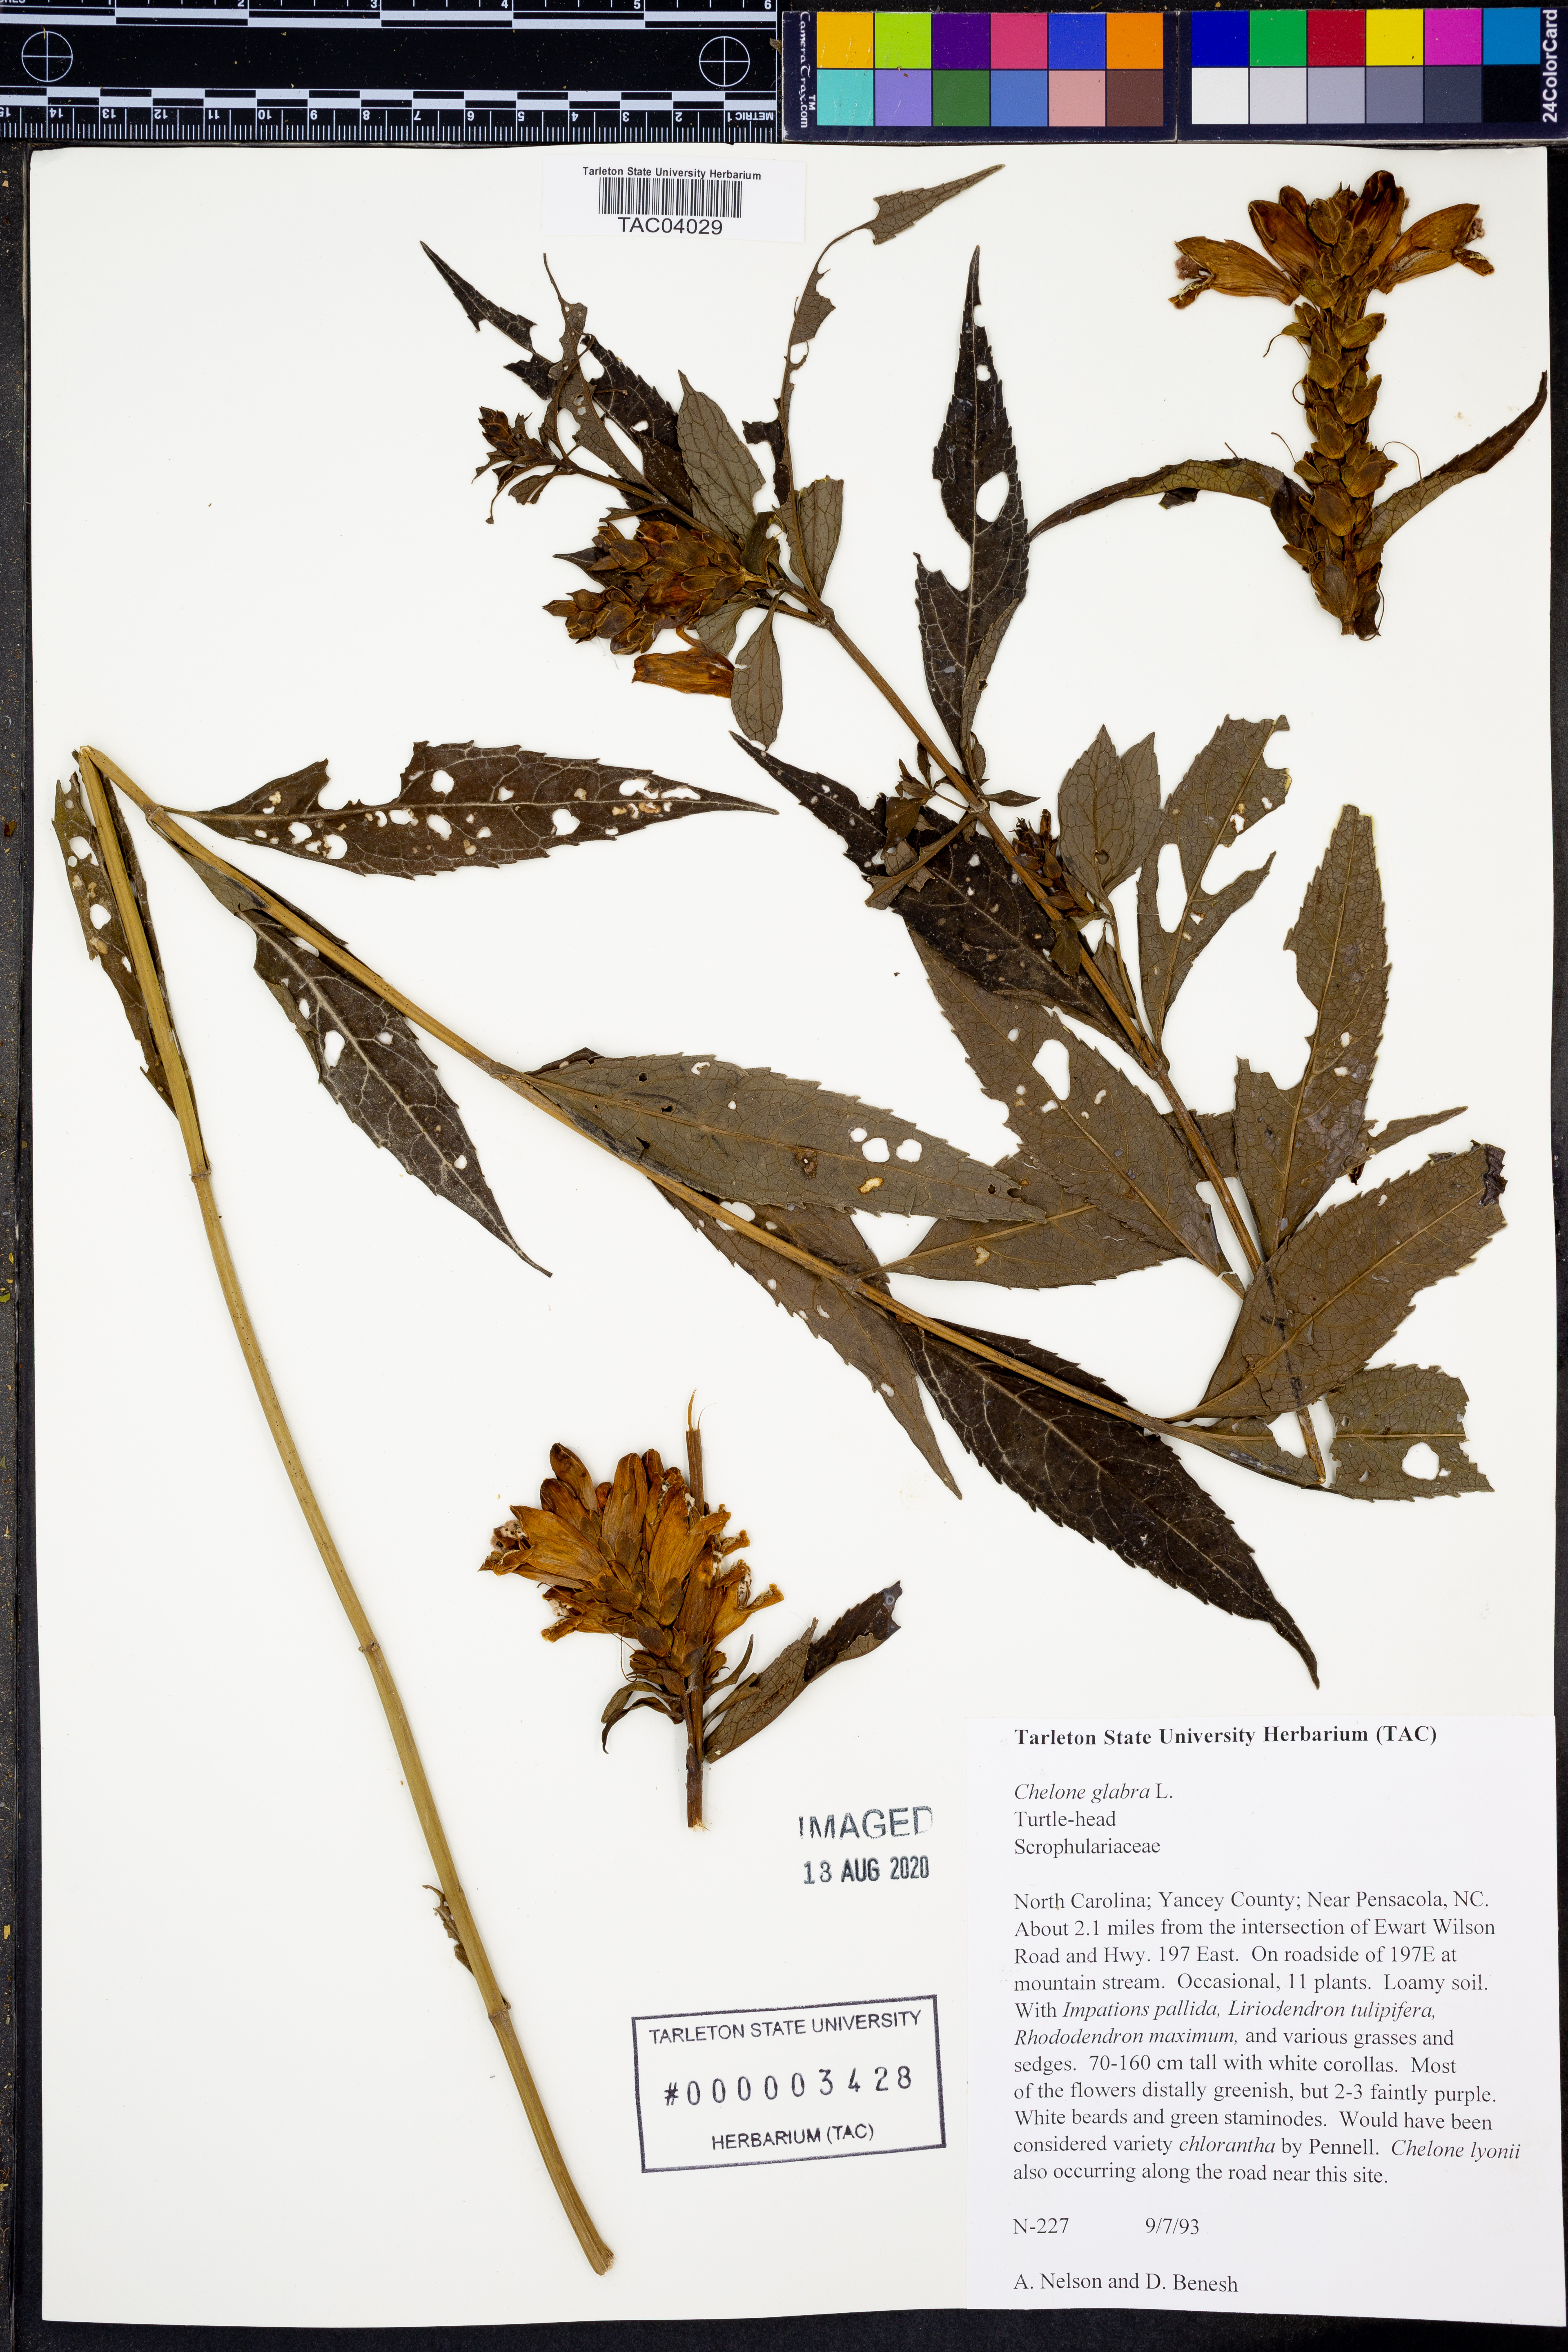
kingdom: Plantae
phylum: Tracheophyta
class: Magnoliopsida
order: Lamiales
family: Plantaginaceae
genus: Chelone
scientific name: Chelone glabra
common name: Snakehead
